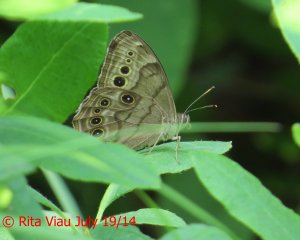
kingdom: Animalia
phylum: Arthropoda
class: Insecta
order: Lepidoptera
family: Nymphalidae
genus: Lethe
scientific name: Lethe anthedon
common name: Northern Pearly-Eye
